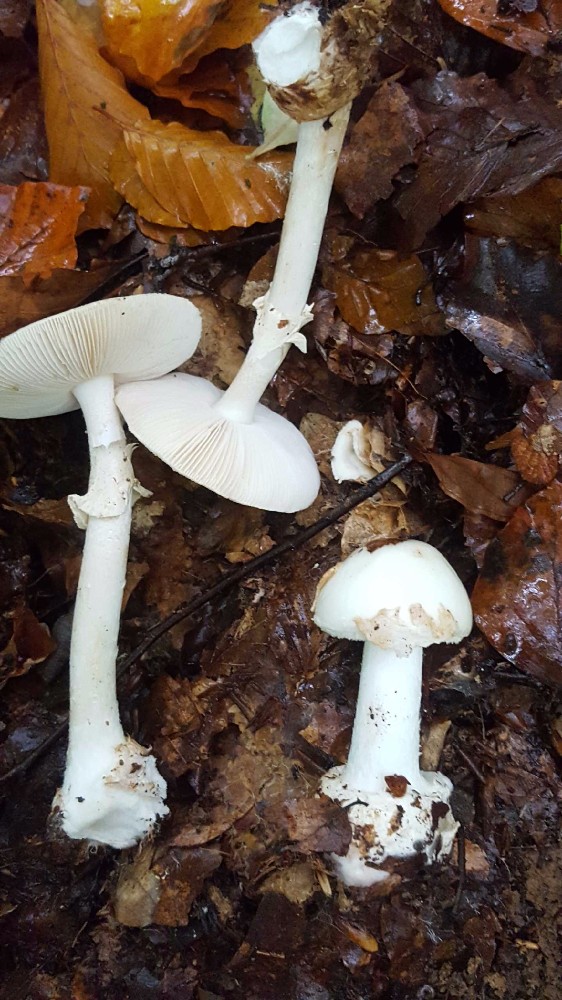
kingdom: Fungi
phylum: Basidiomycota
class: Agaricomycetes
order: Agaricales
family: Amanitaceae
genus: Amanita
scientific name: Amanita citrina
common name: kugleknoldet fluesvamp
